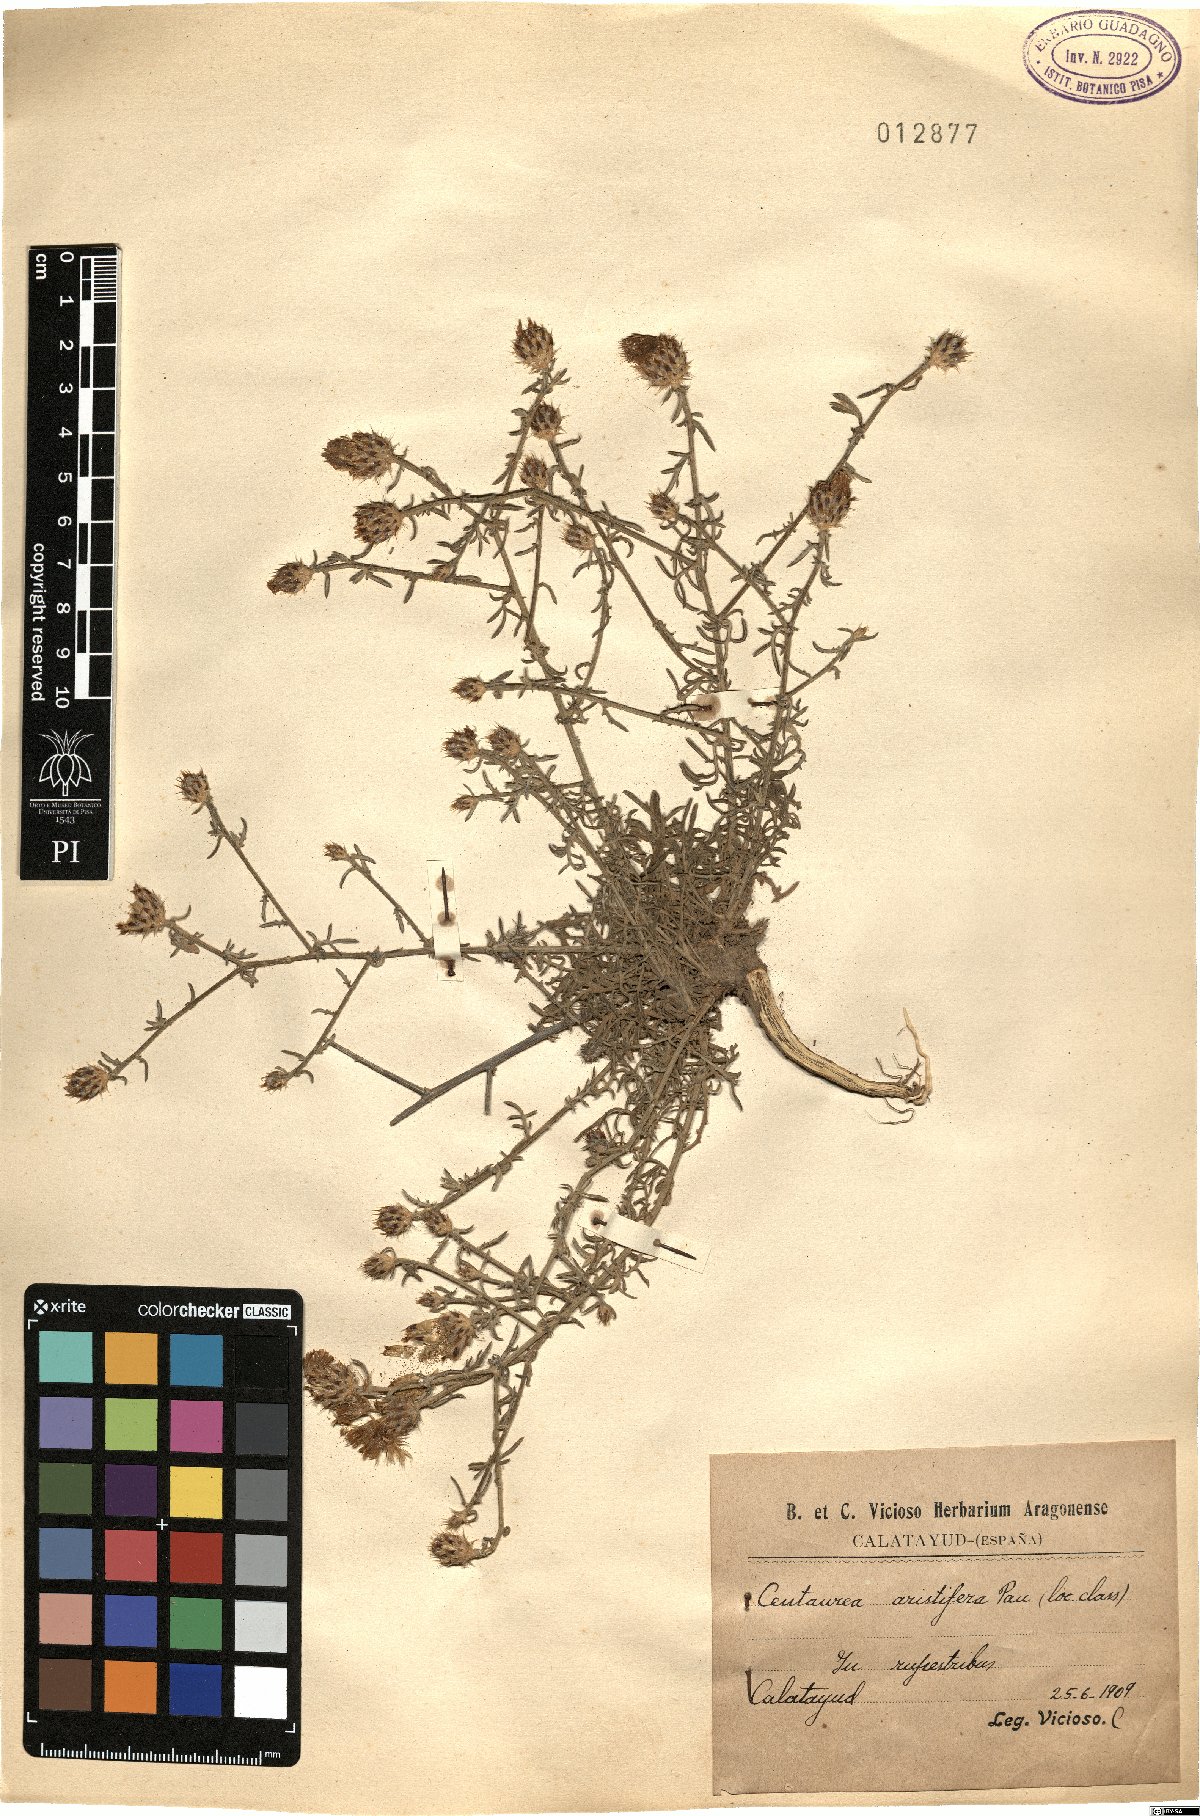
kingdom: Plantae
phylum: Tracheophyta
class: Magnoliopsida
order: Asterales
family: Asteraceae
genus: Centaurea
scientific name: Centaurea alba
